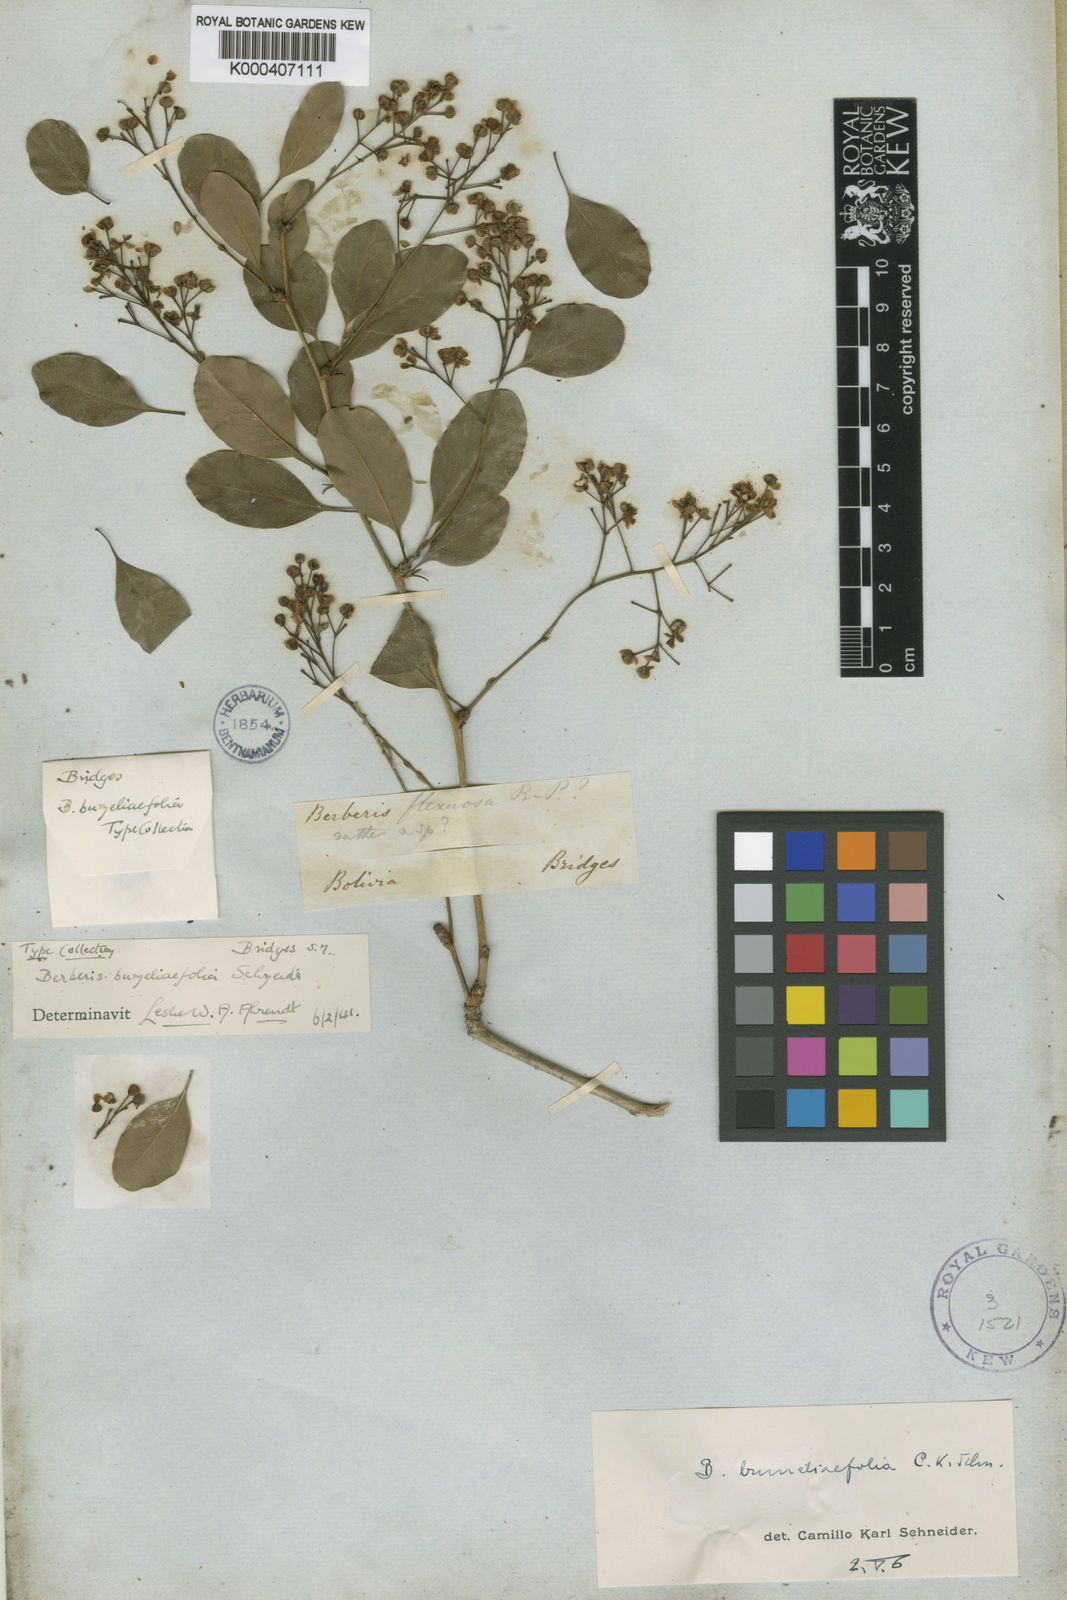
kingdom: Plantae
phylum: Tracheophyta
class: Magnoliopsida
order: Ranunculales
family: Berberidaceae
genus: Berberis
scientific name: Berberis
